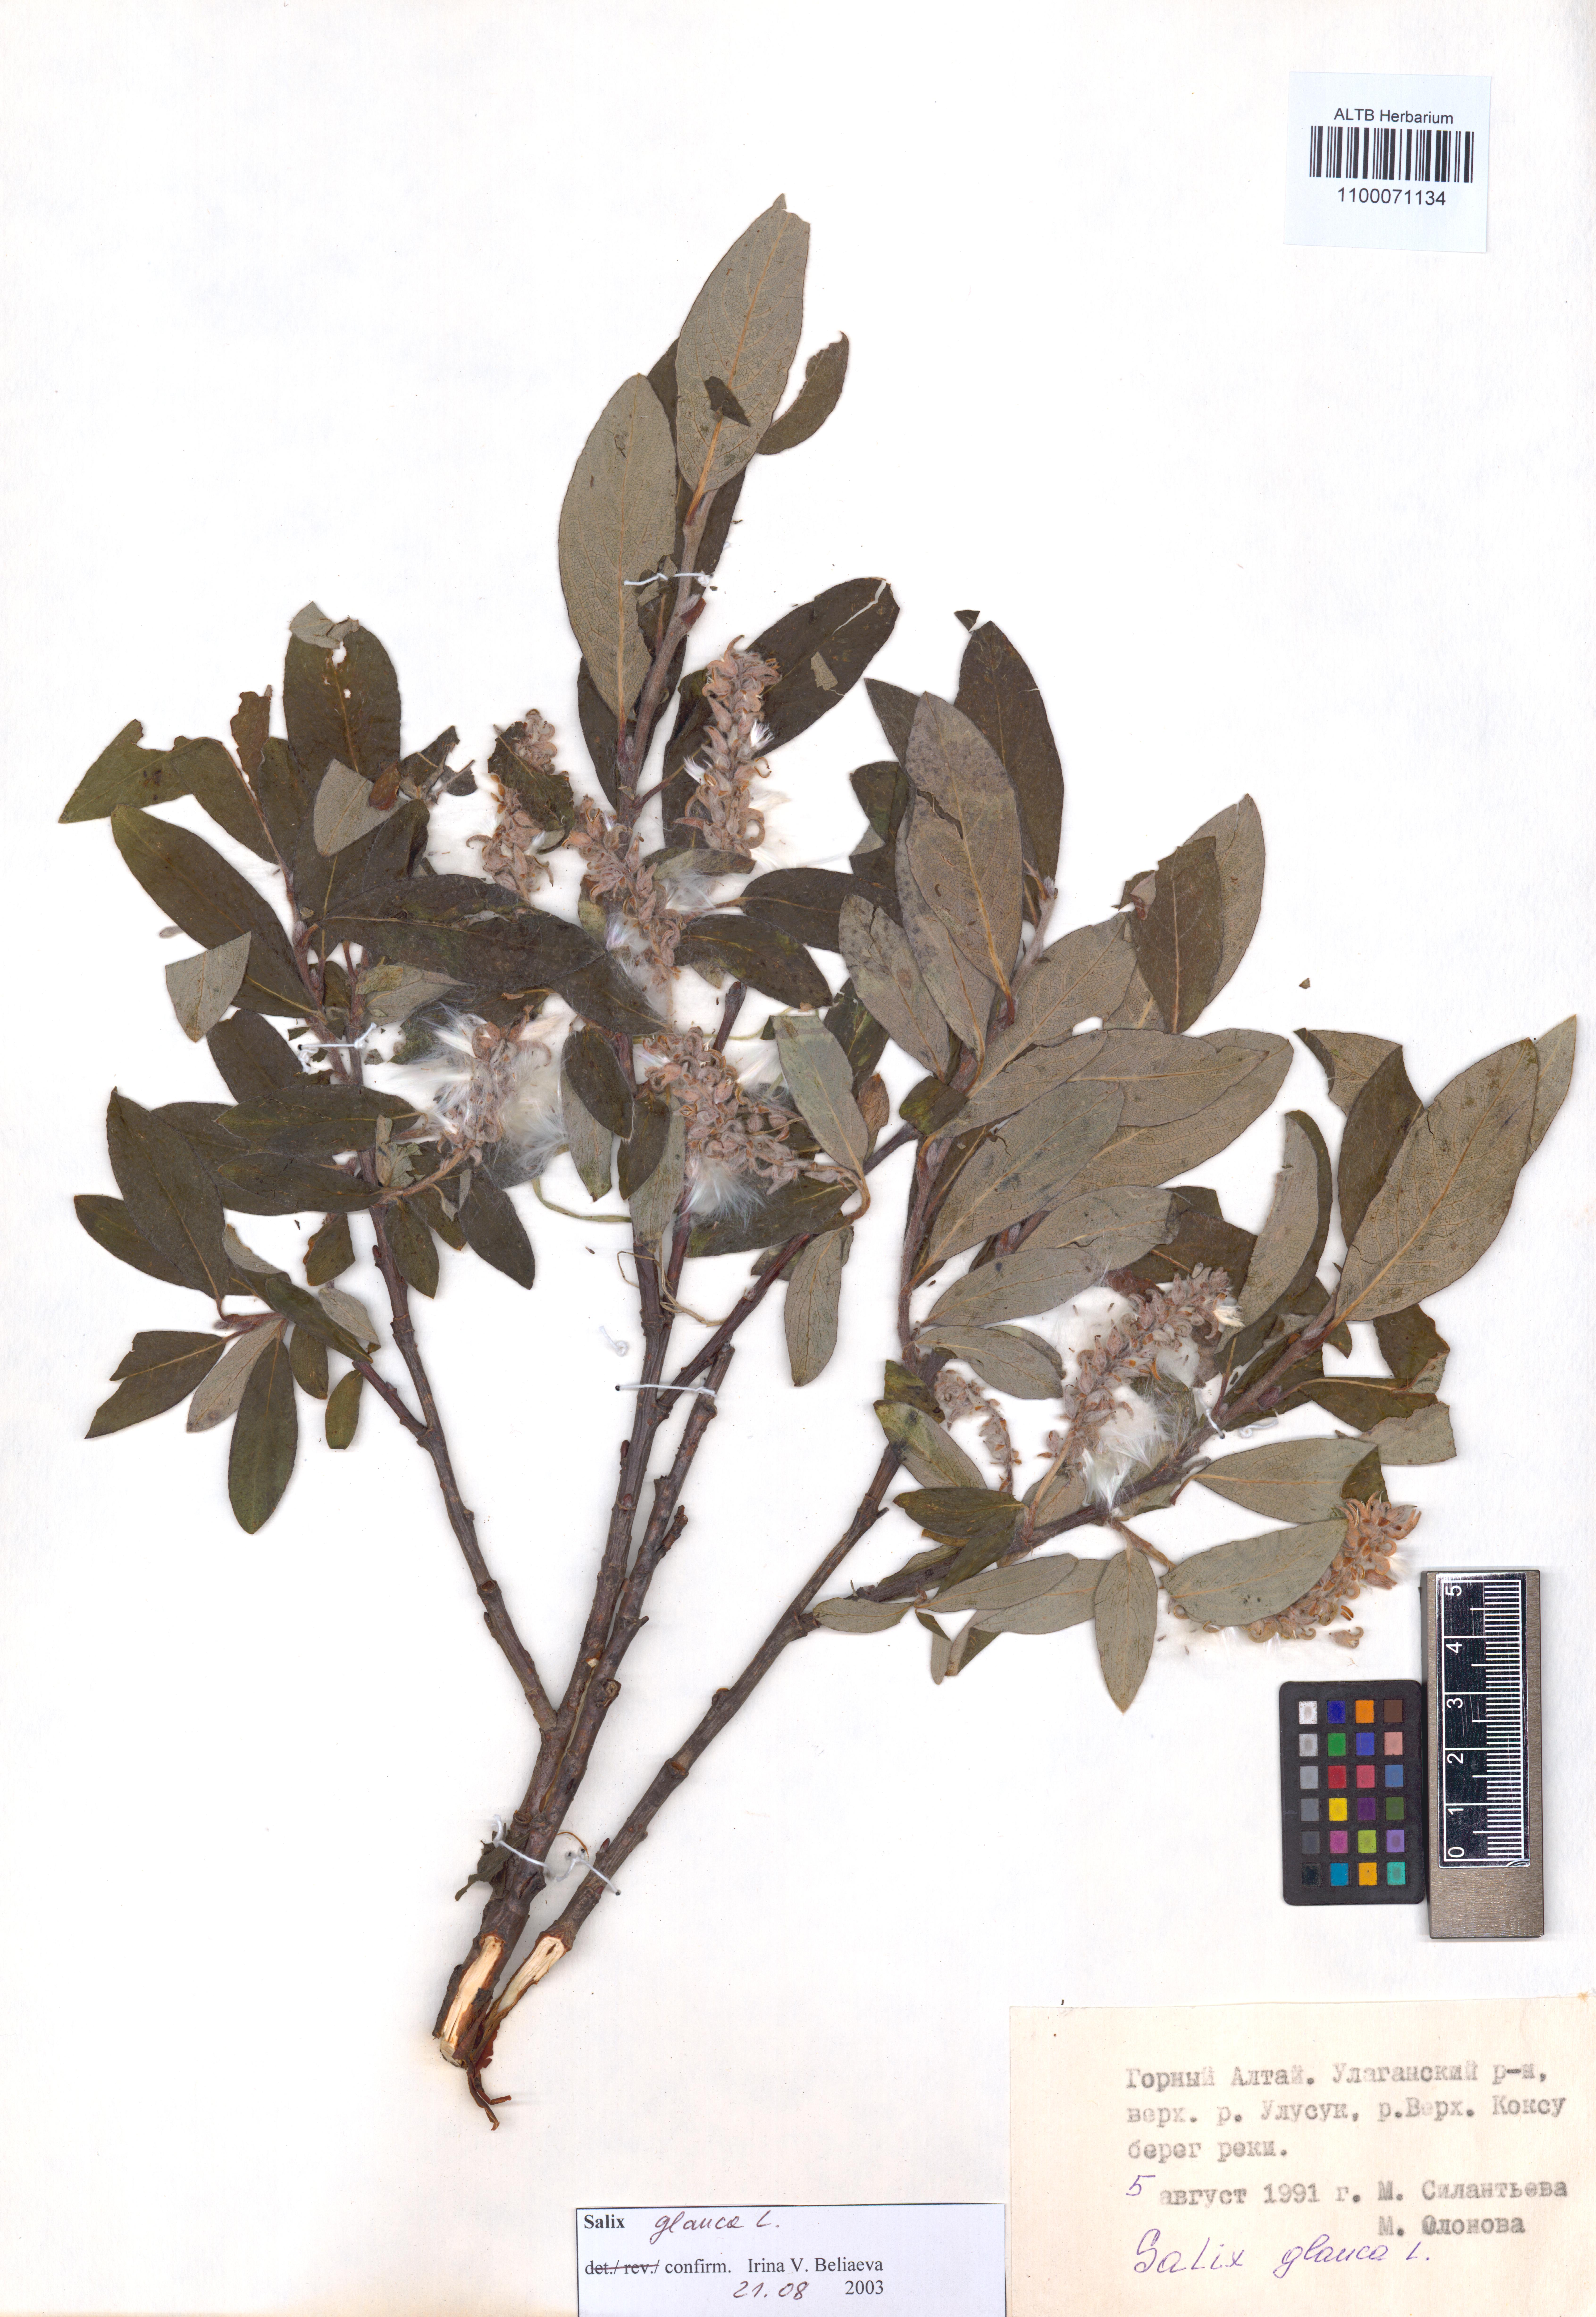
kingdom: Plantae
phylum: Tracheophyta
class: Magnoliopsida
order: Malpighiales
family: Salicaceae
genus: Salix
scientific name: Salix glauca
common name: Glaucous willow
